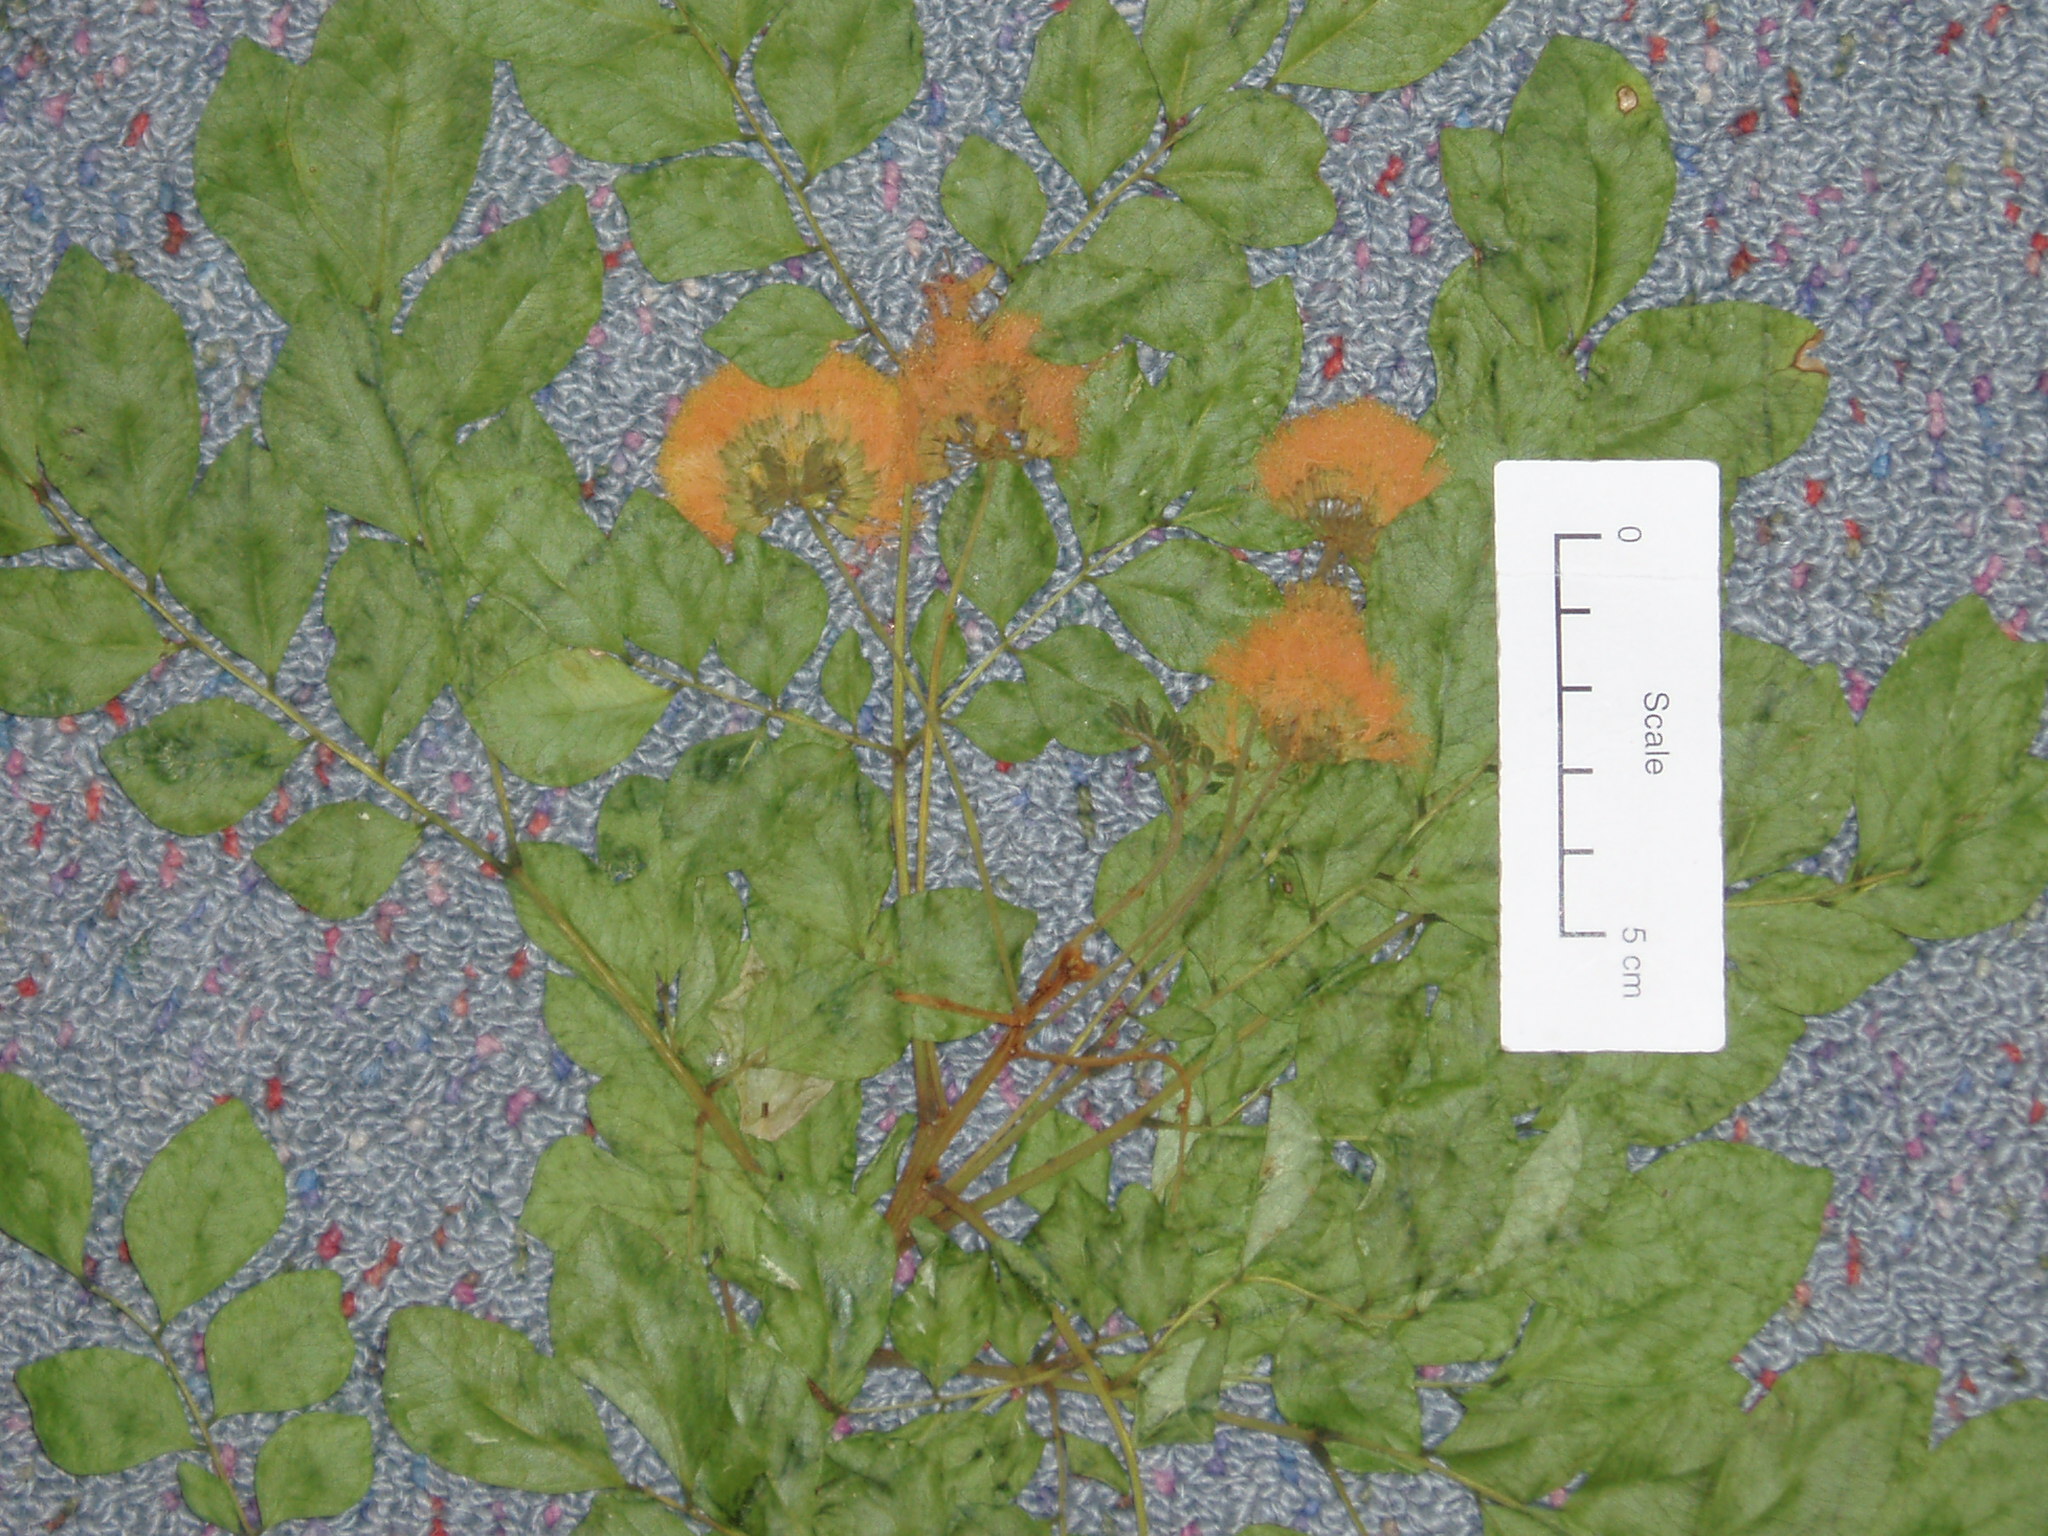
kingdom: Plantae
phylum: Tracheophyta
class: Magnoliopsida
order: Fabales
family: Fabaceae
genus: Pararchidendron
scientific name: Pararchidendron pruinosum
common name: Tulip siris
